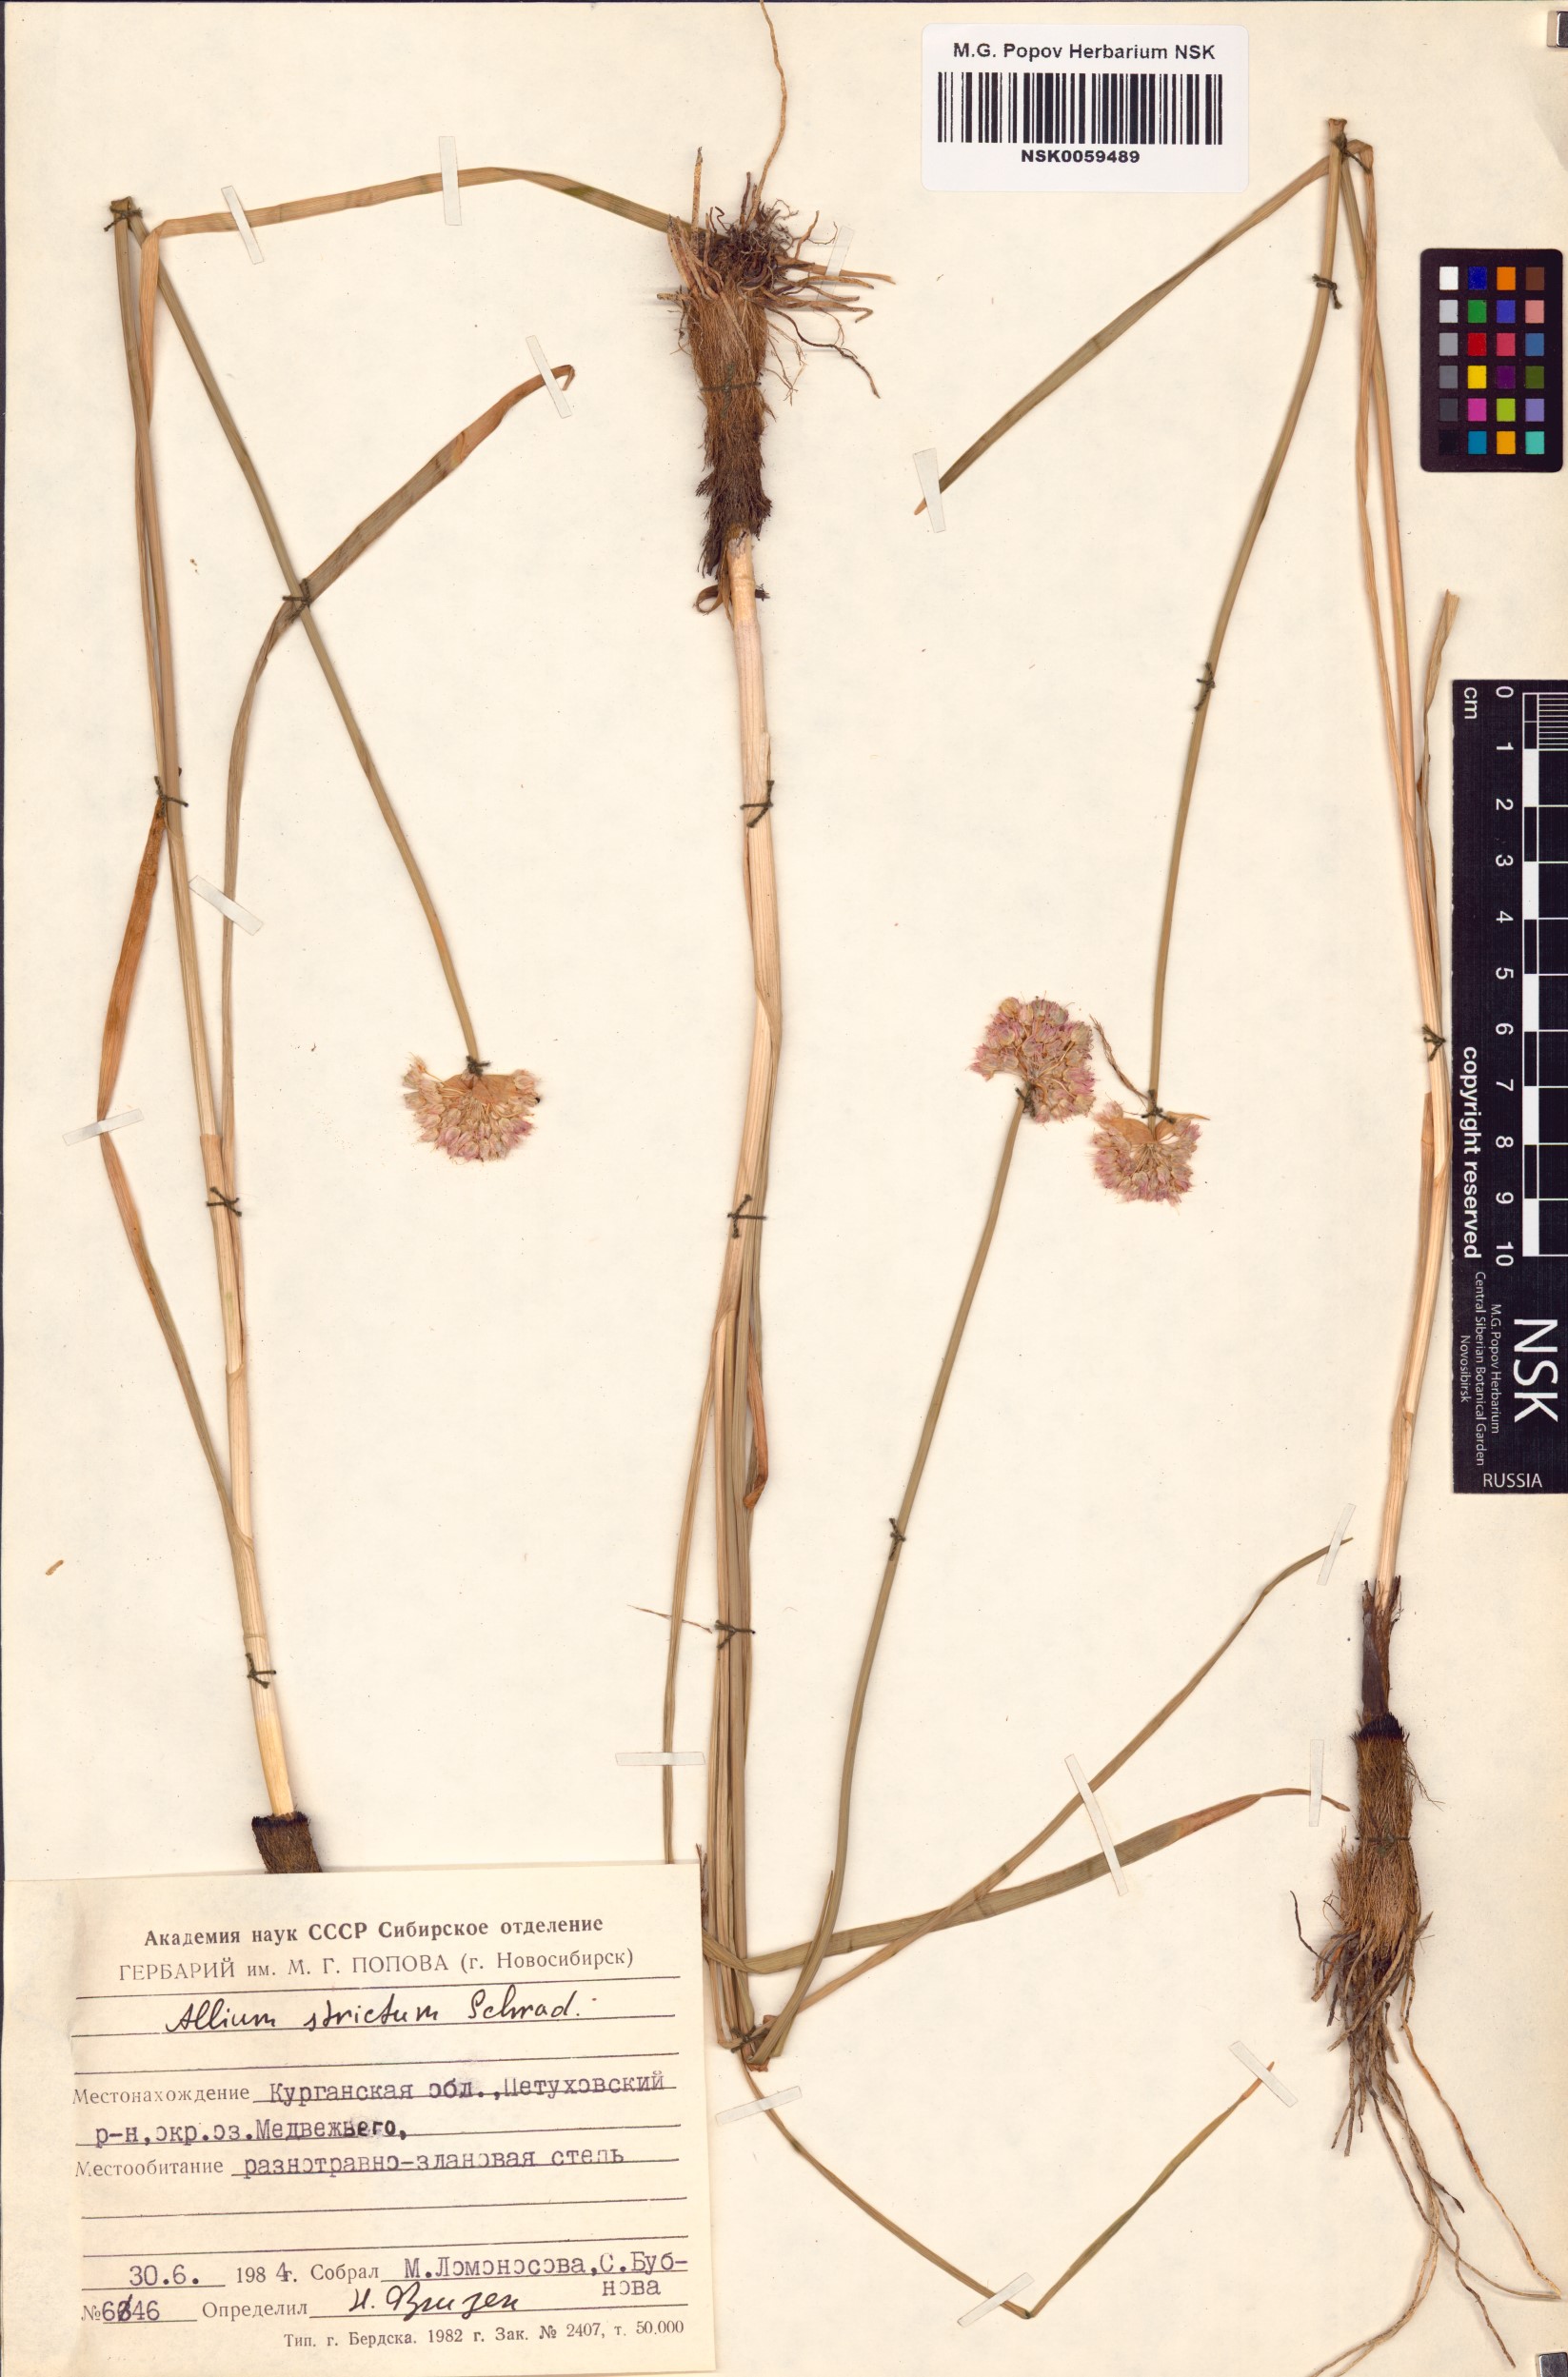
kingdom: Plantae
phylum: Tracheophyta
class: Liliopsida
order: Asparagales
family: Amaryllidaceae
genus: Allium
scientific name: Allium strictum
